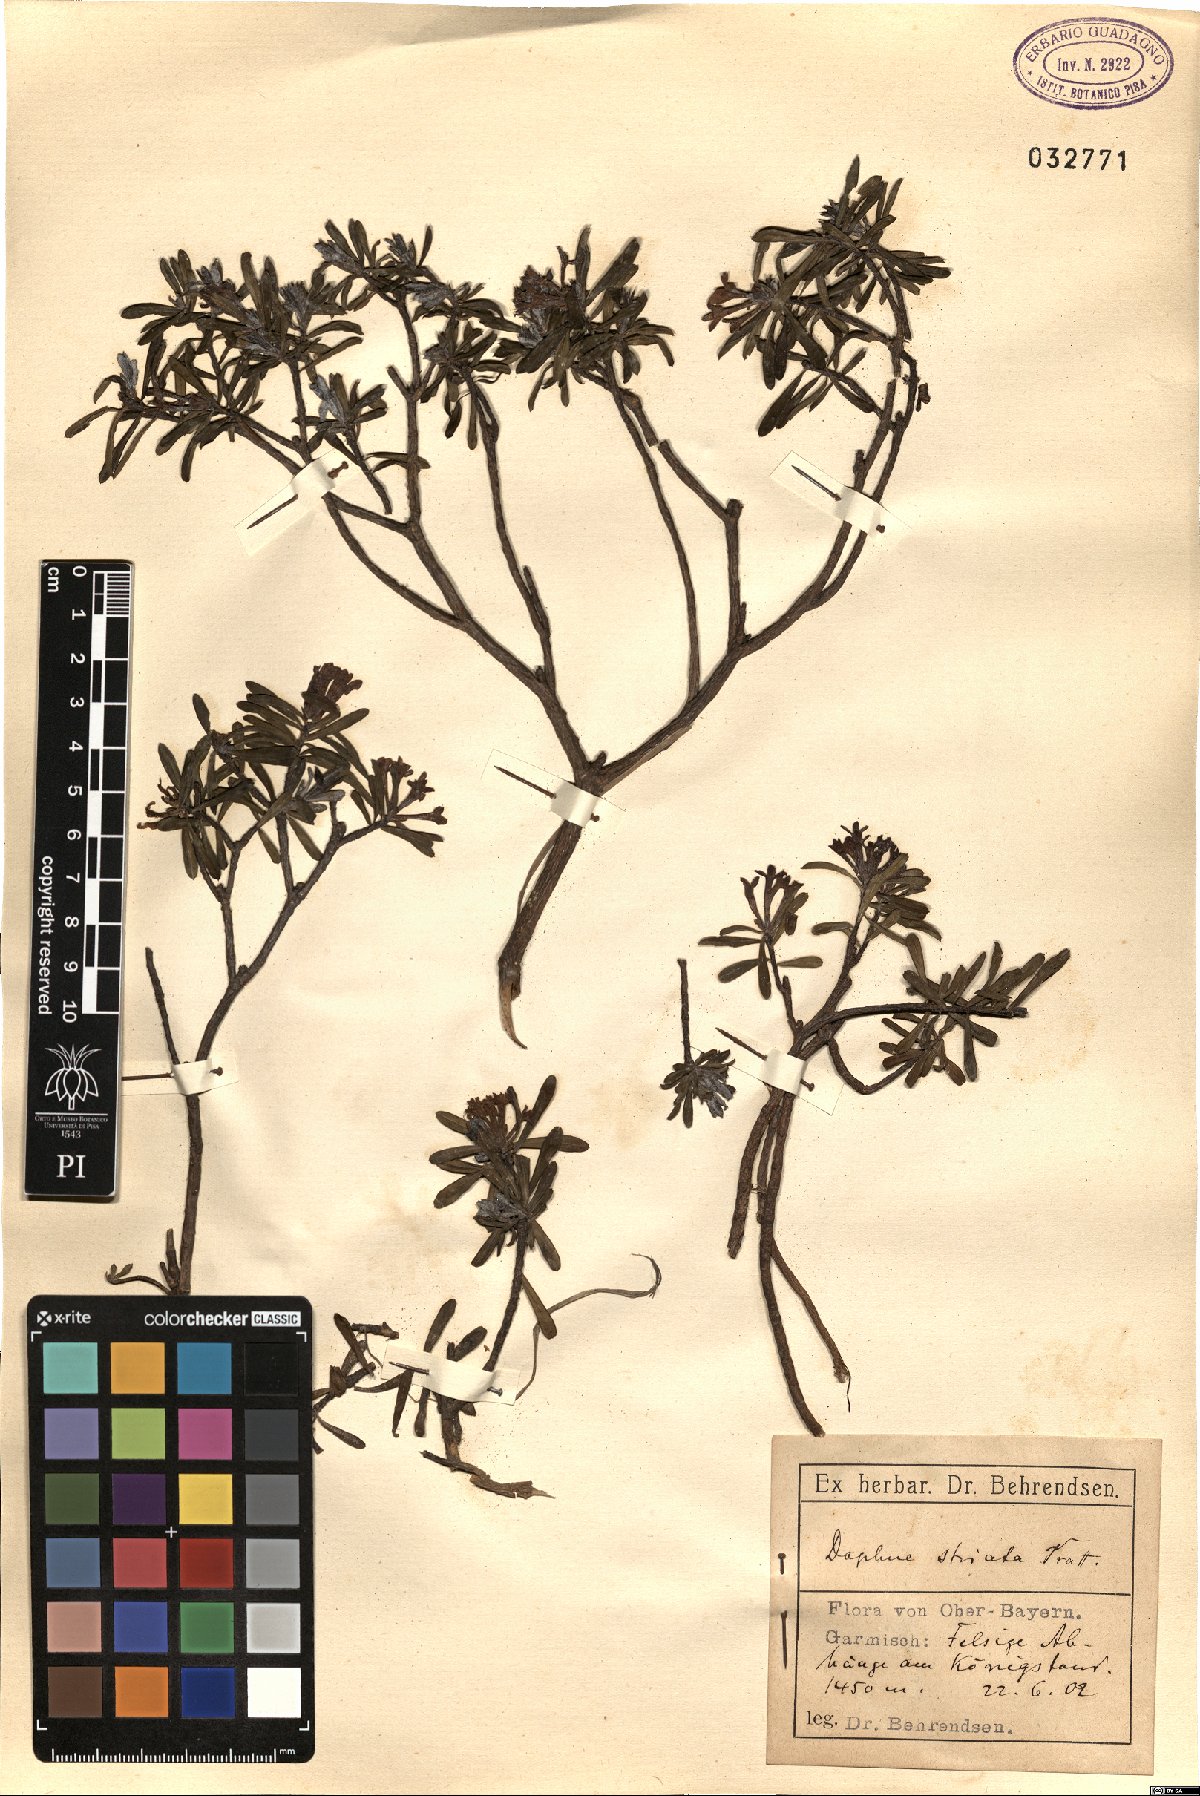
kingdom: Plantae
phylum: Tracheophyta
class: Magnoliopsida
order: Malvales
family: Thymelaeaceae
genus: Daphne
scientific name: Daphne striata
